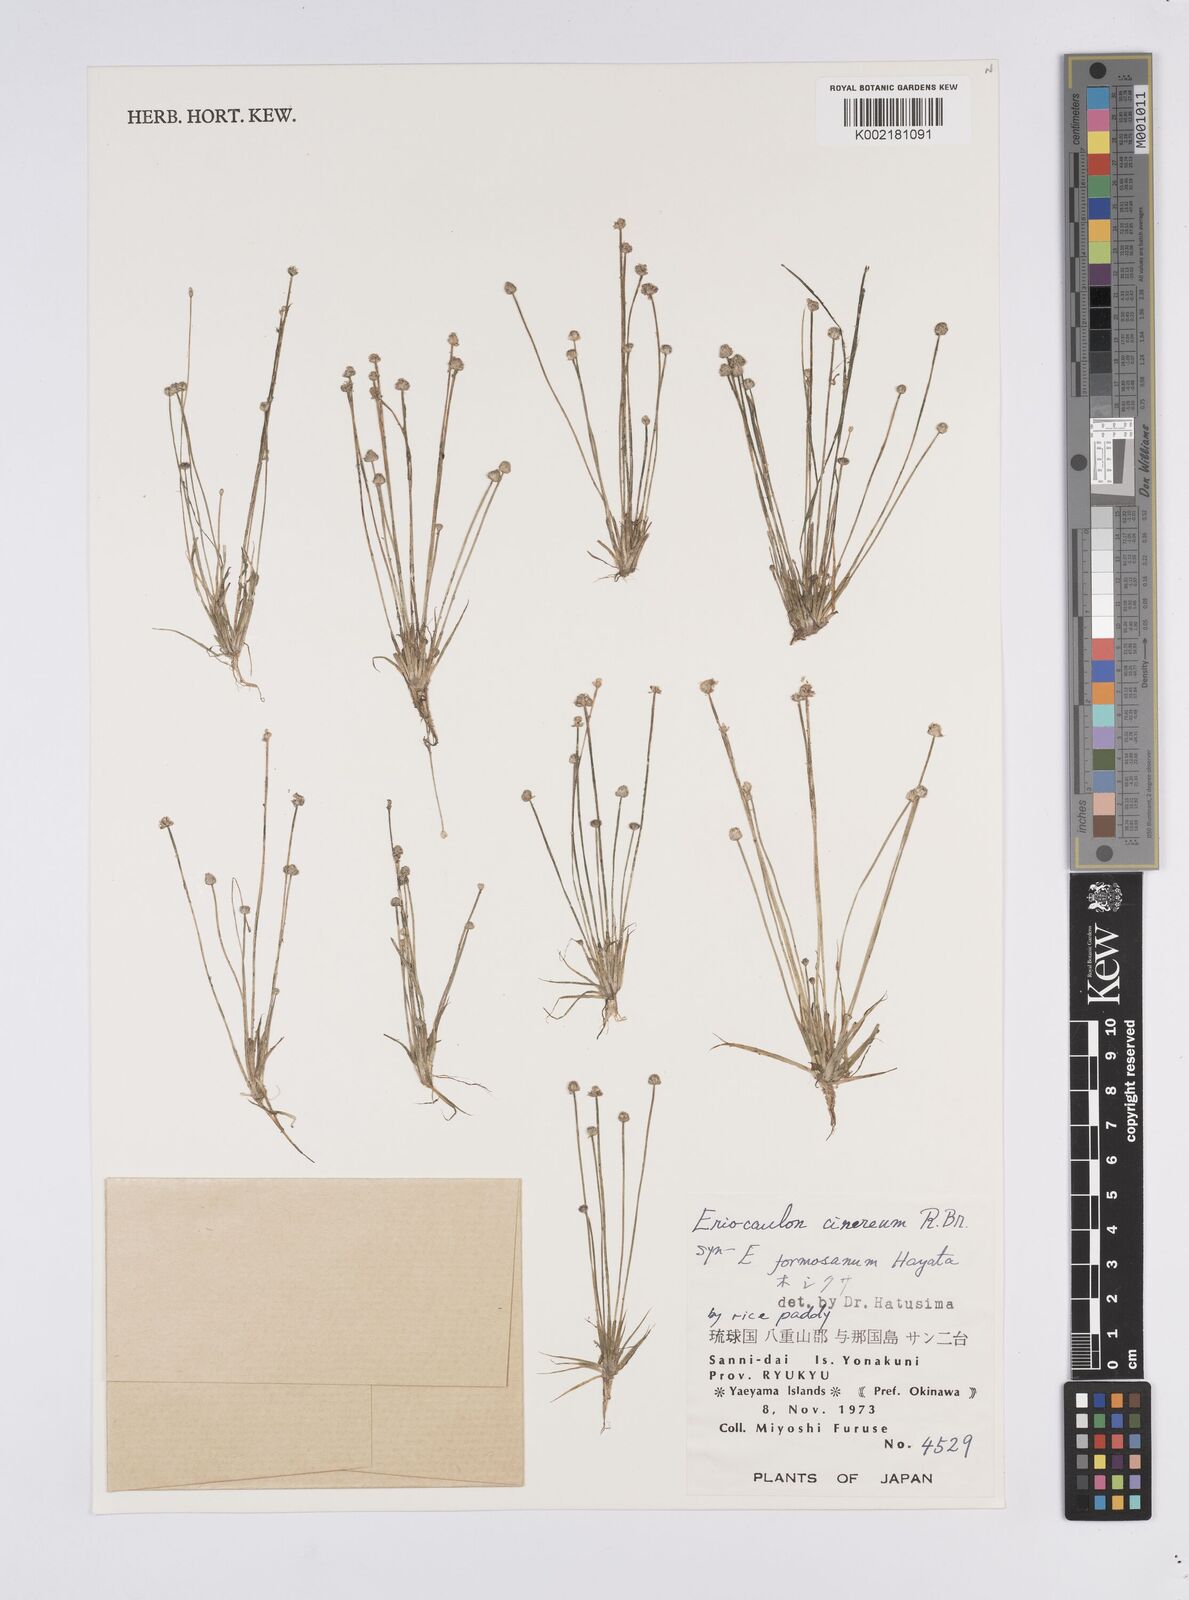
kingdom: Plantae
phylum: Tracheophyta
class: Liliopsida
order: Poales
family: Eriocaulaceae
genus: Eriocaulon
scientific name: Eriocaulon cinereum
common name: Ashy pipewort
